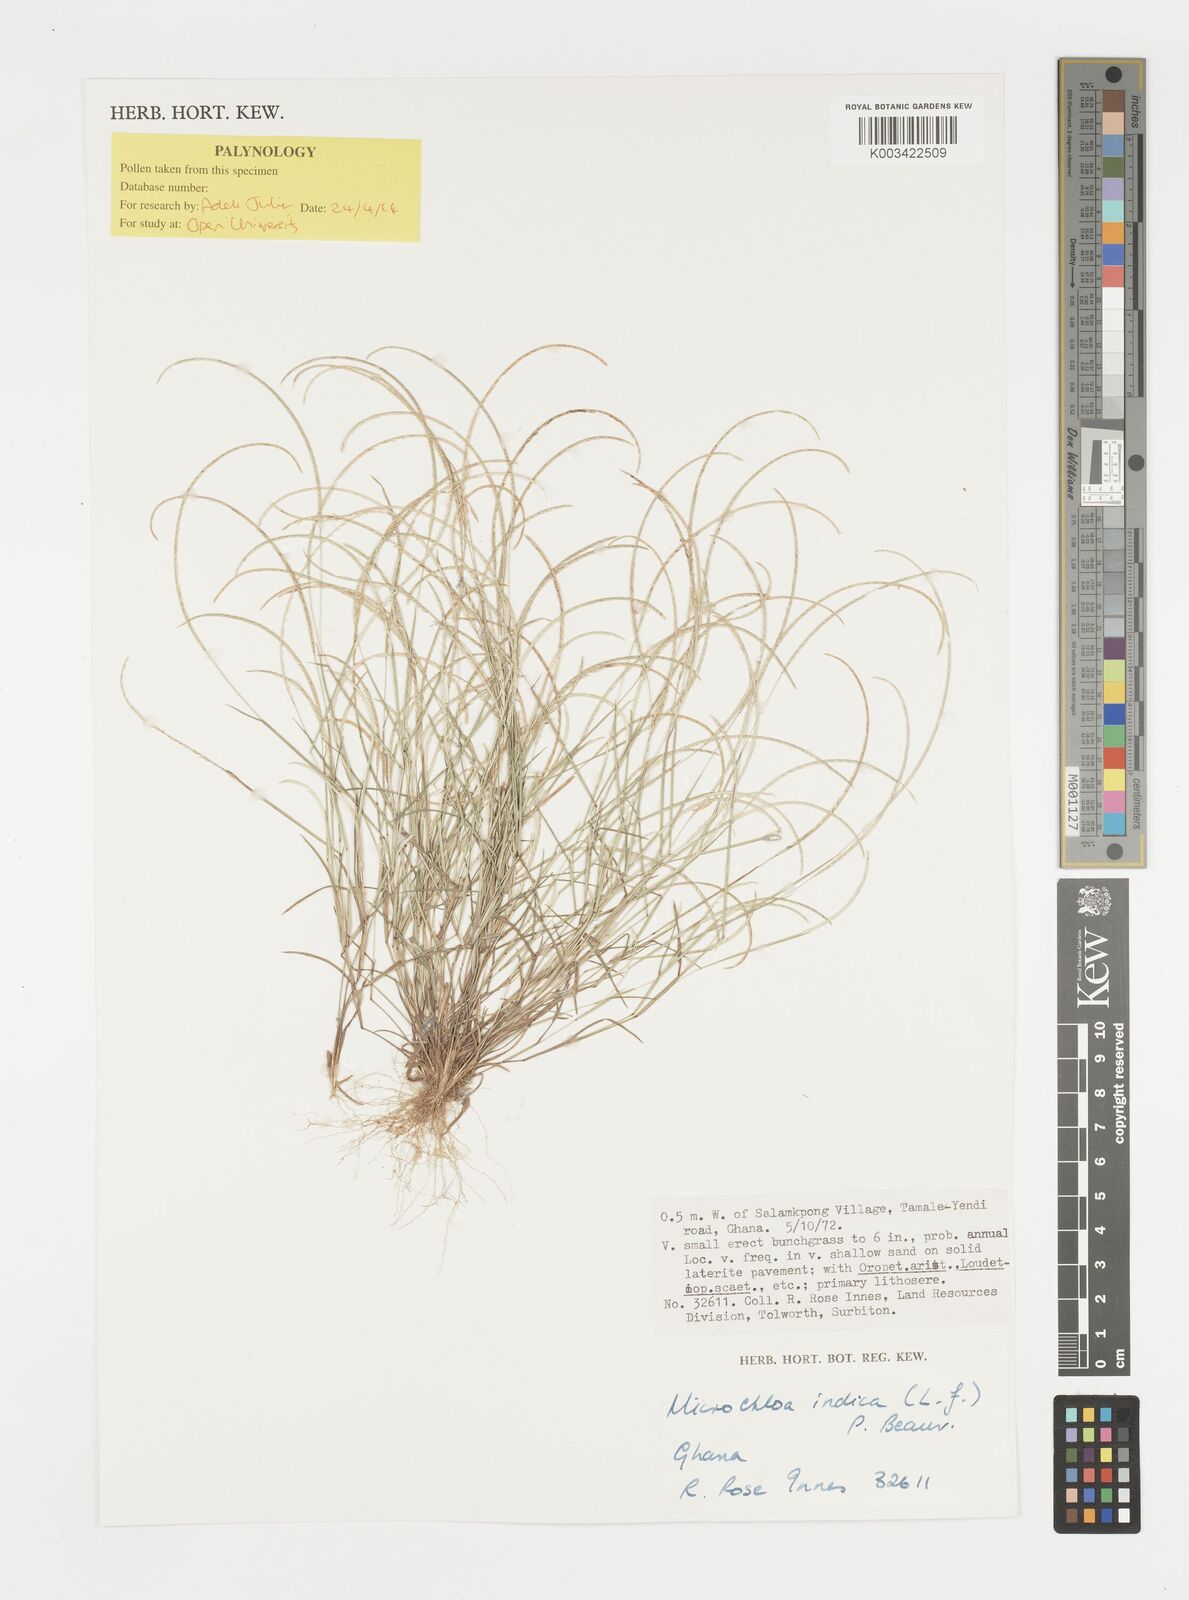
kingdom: Plantae
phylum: Tracheophyta
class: Liliopsida
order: Poales
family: Poaceae
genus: Microchloa
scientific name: Microchloa indica
